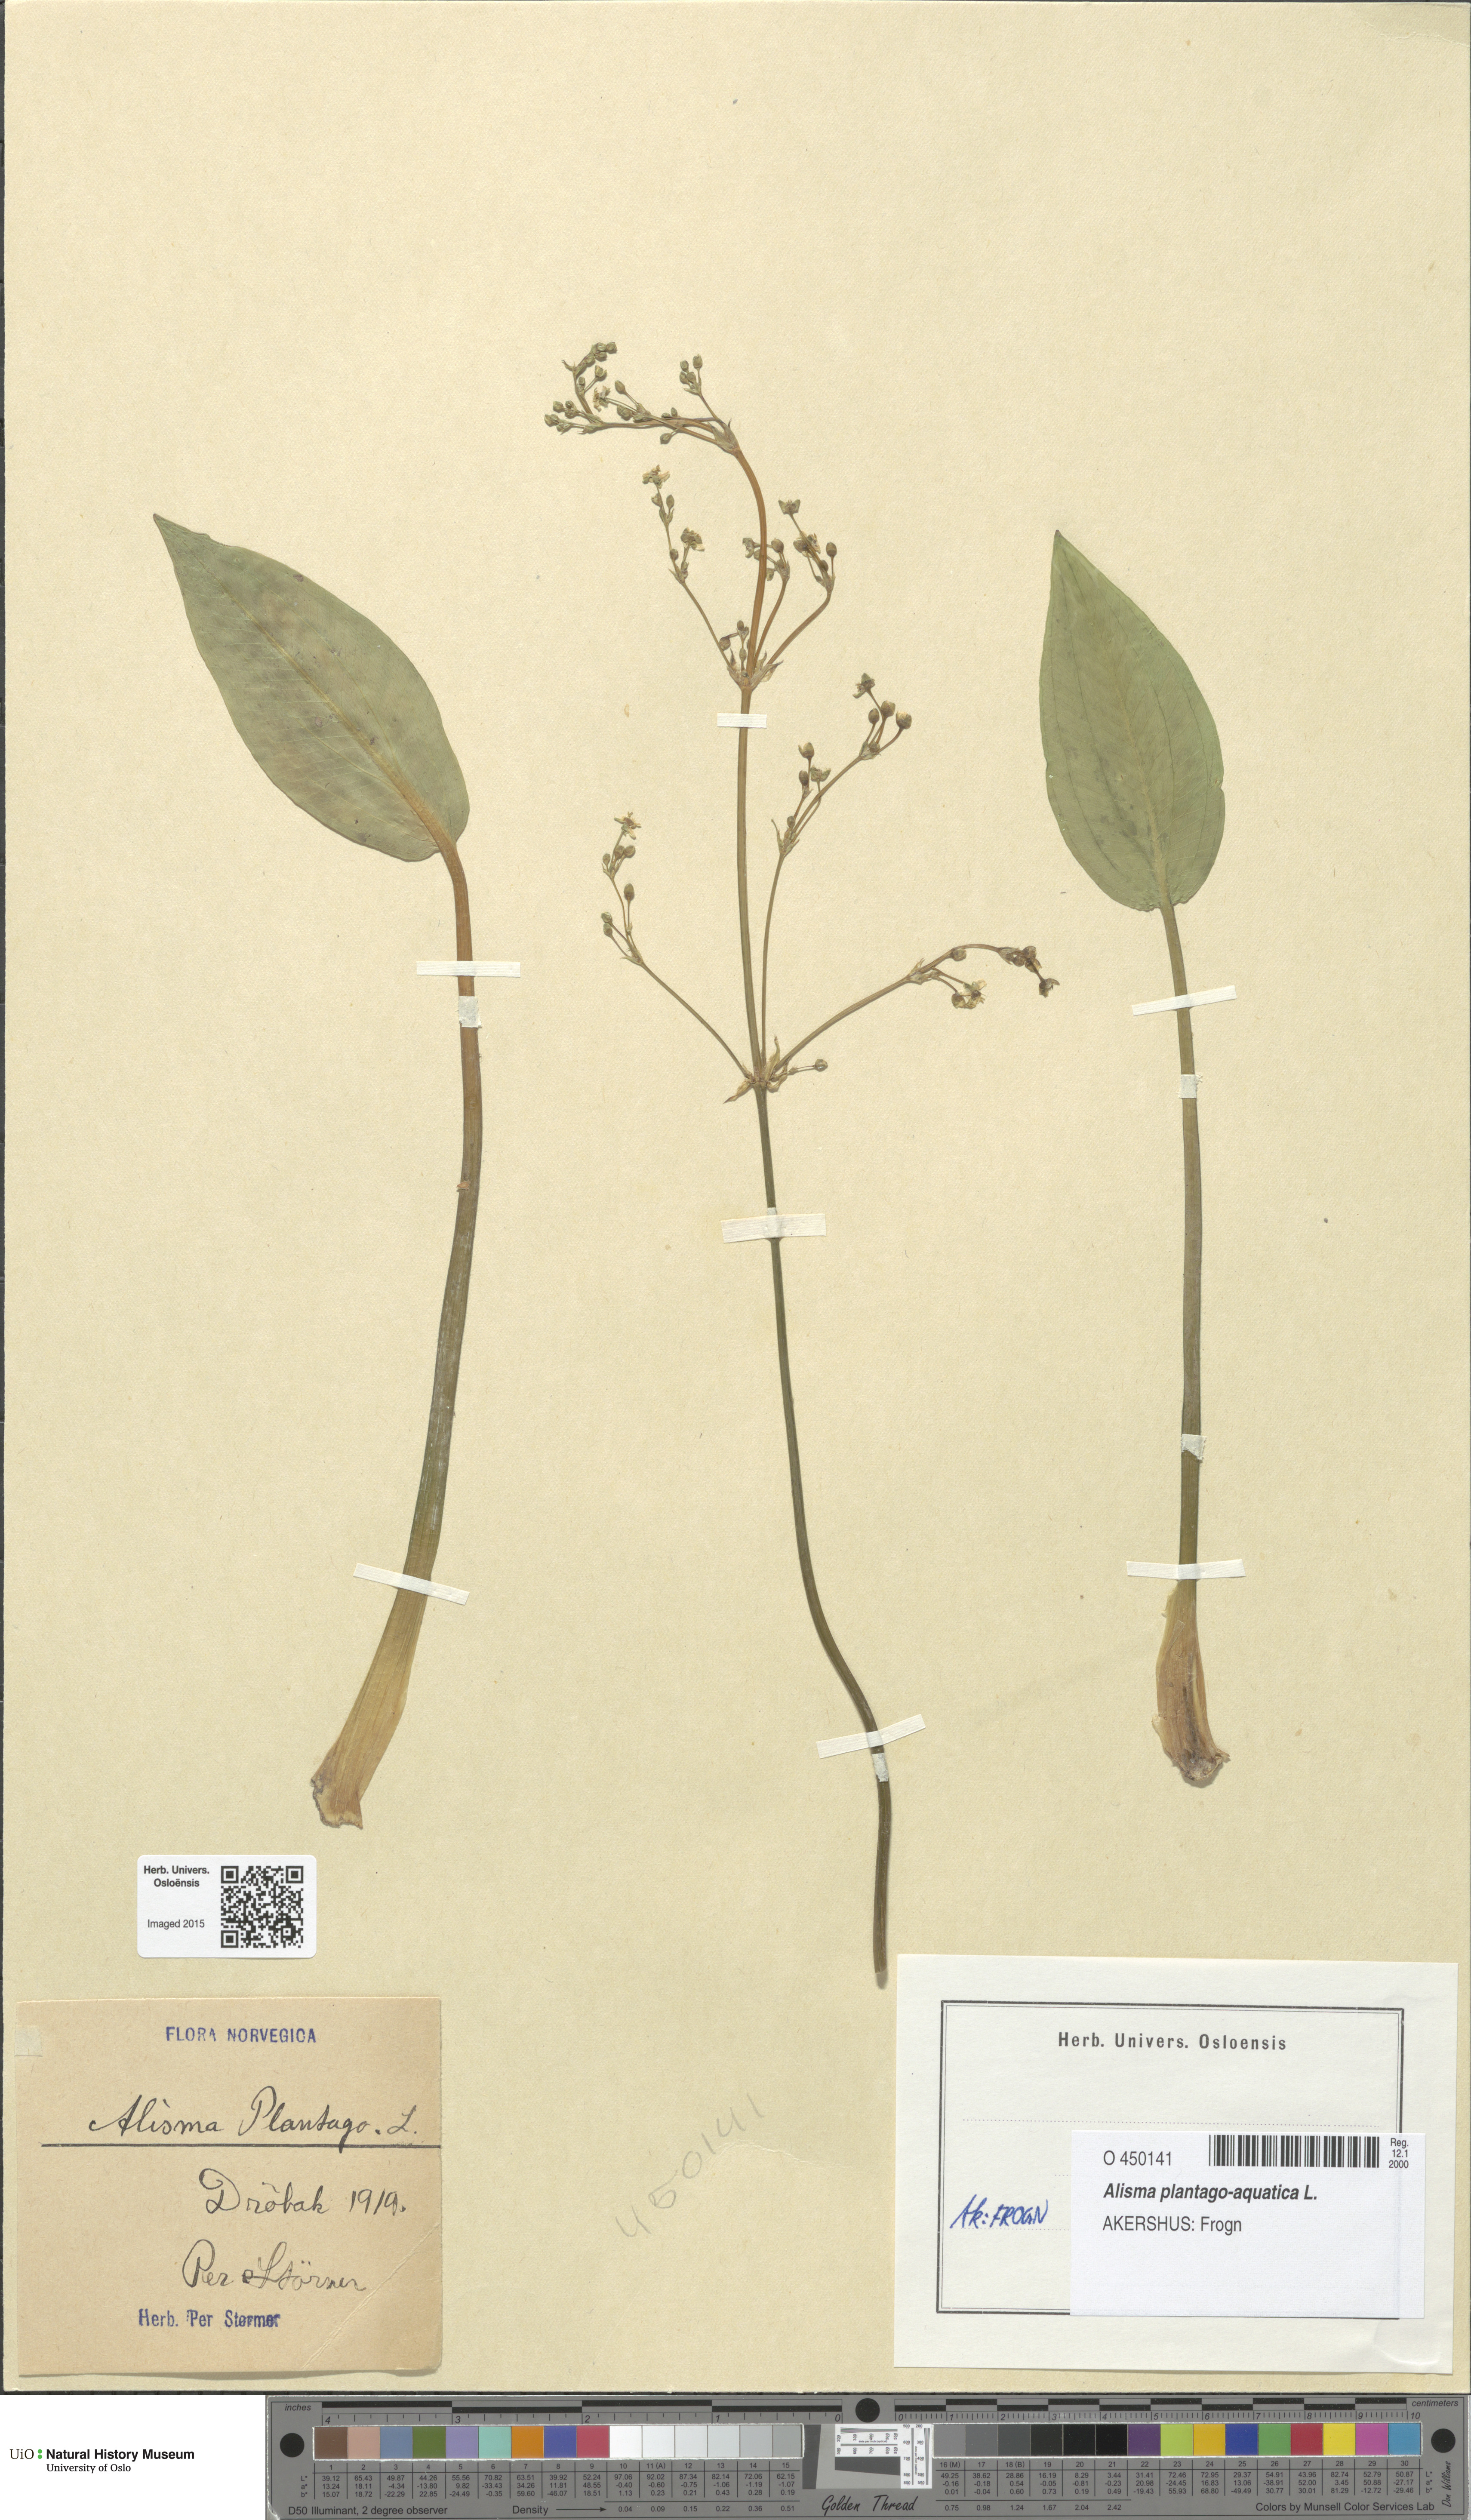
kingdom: Plantae
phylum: Tracheophyta
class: Liliopsida
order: Alismatales
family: Alismataceae
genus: Alisma
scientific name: Alisma plantago-aquatica
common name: Water-plantain
